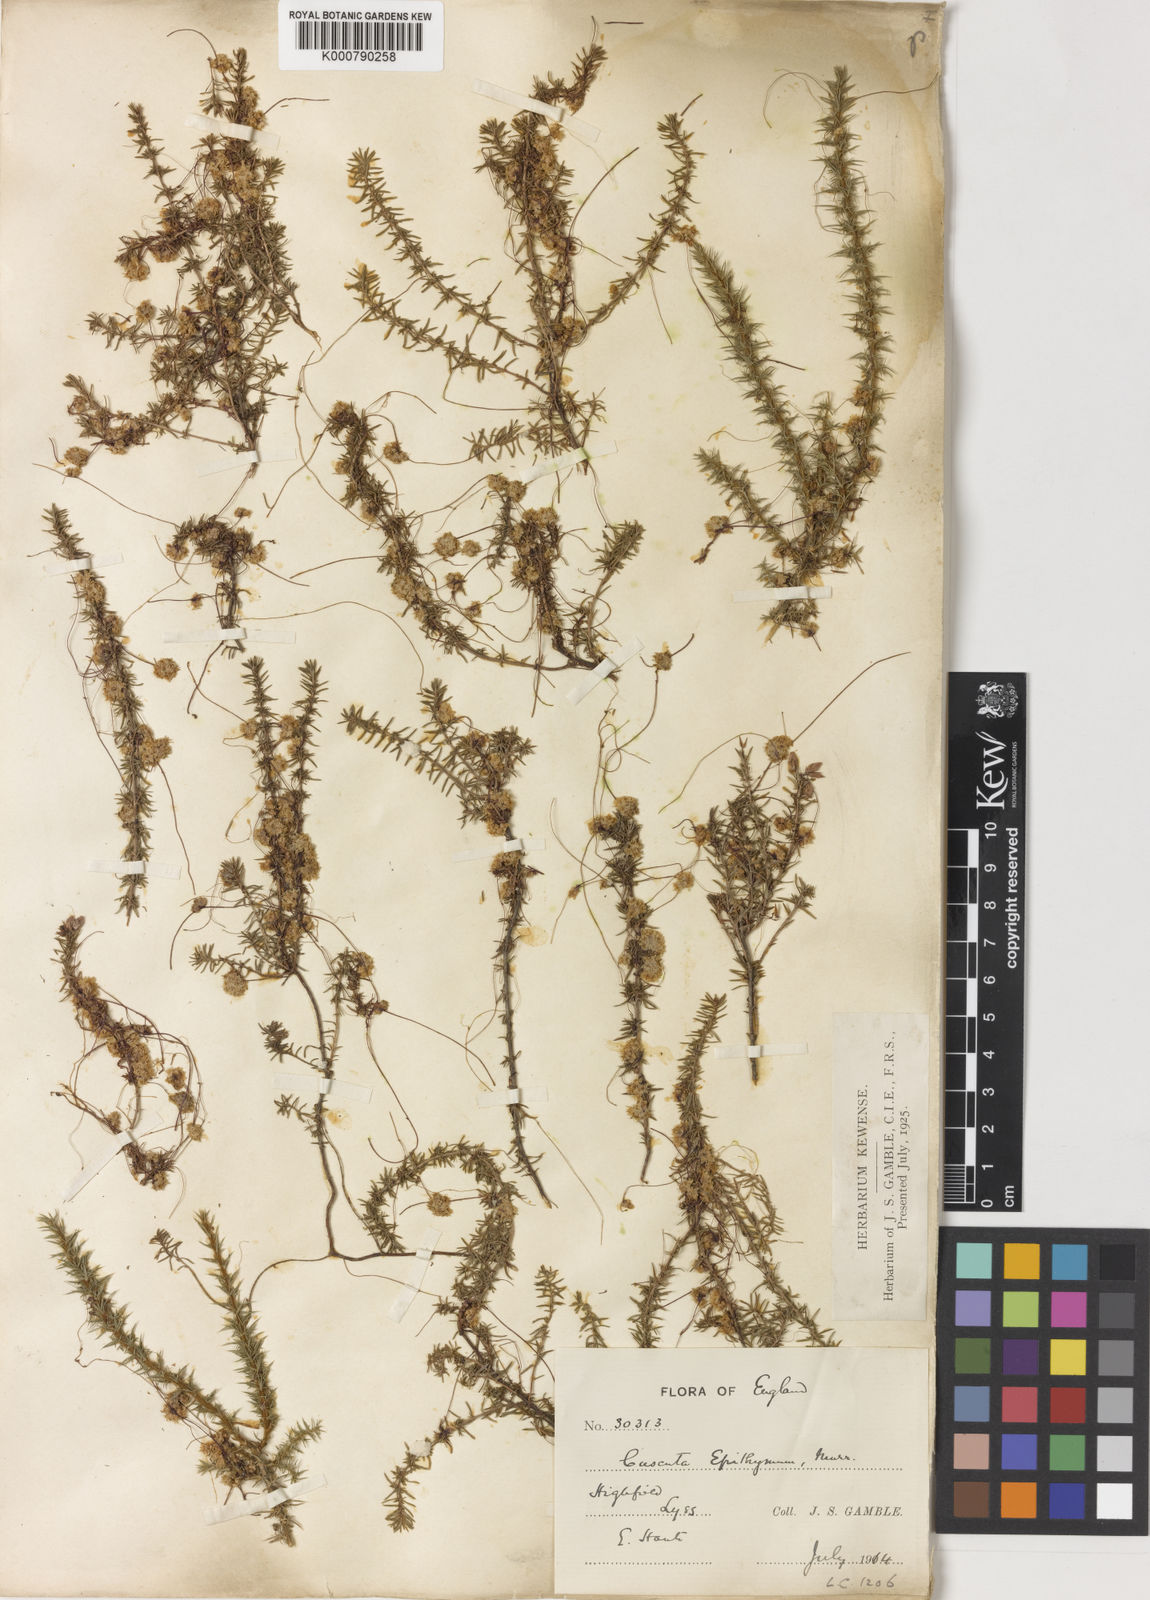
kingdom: Plantae
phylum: Tracheophyta
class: Magnoliopsida
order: Solanales
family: Convolvulaceae
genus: Cuscuta
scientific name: Cuscuta epithymum
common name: Clover dodder
